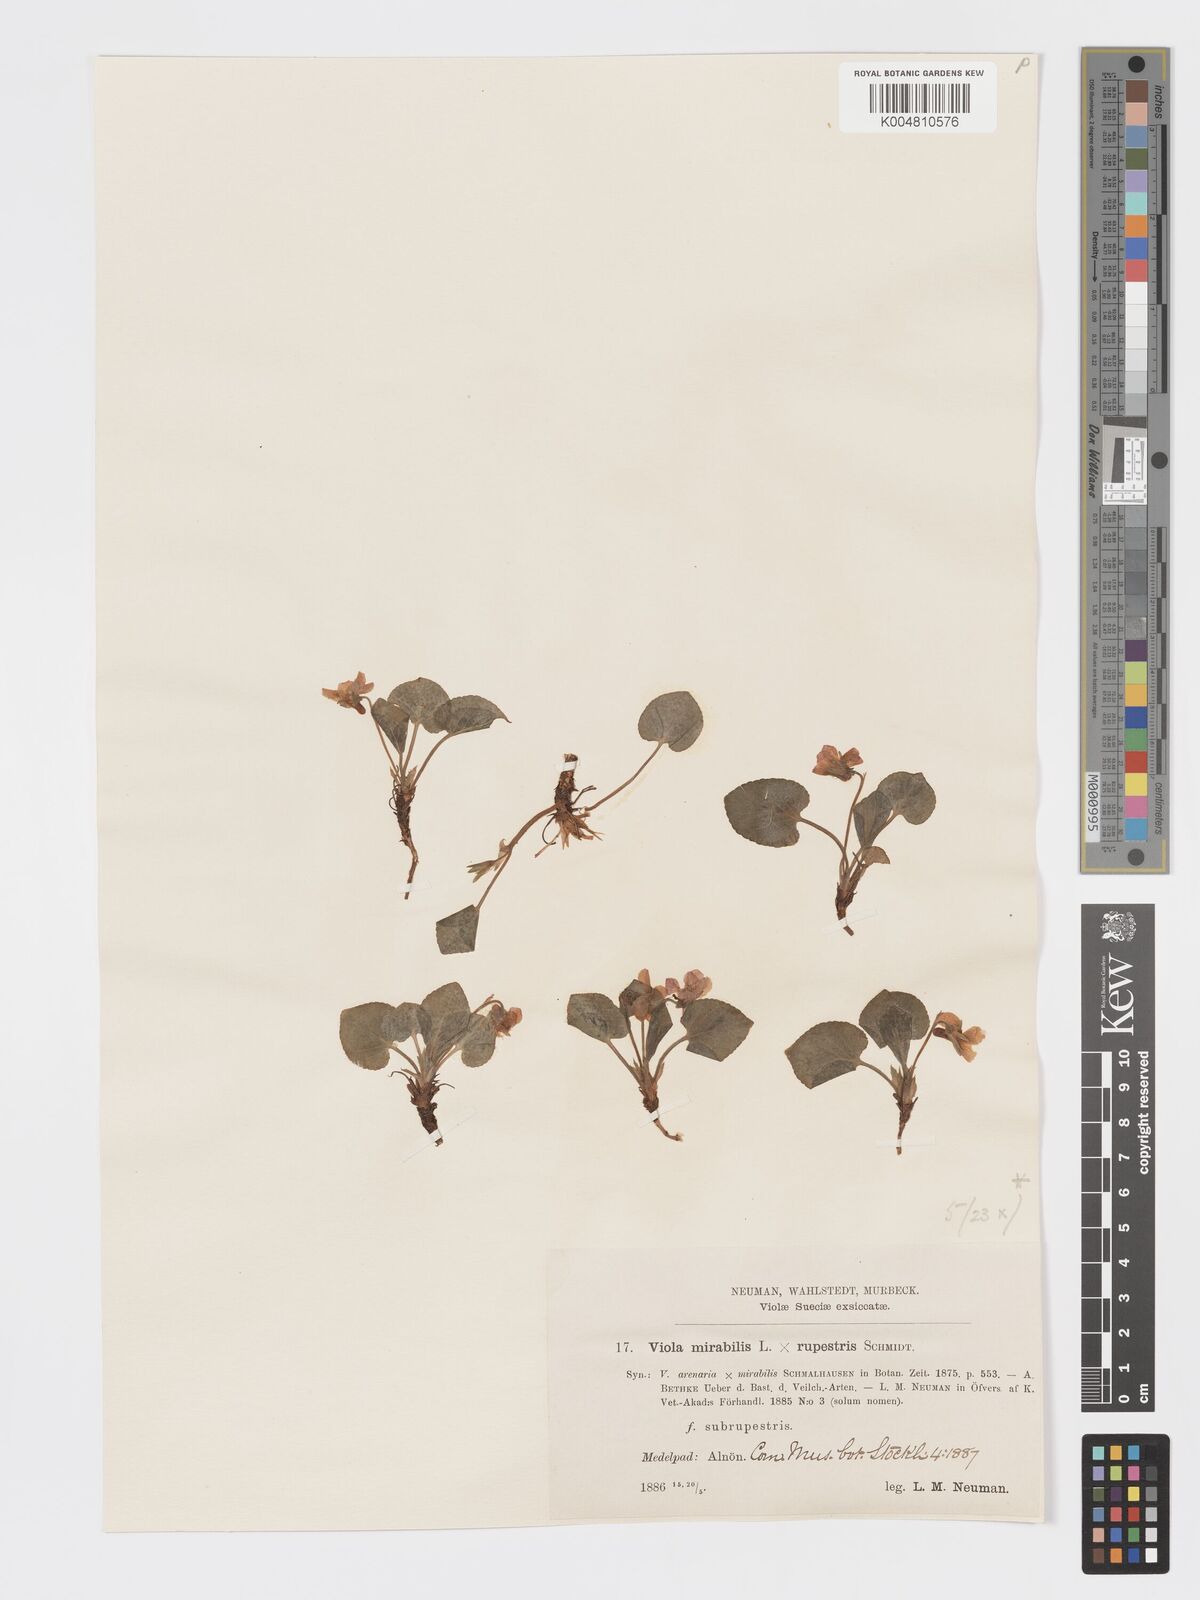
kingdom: Plantae
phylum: Tracheophyta
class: Magnoliopsida
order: Malpighiales
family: Violaceae
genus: Viola
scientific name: Viola mirabilis
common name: Wonder violet
